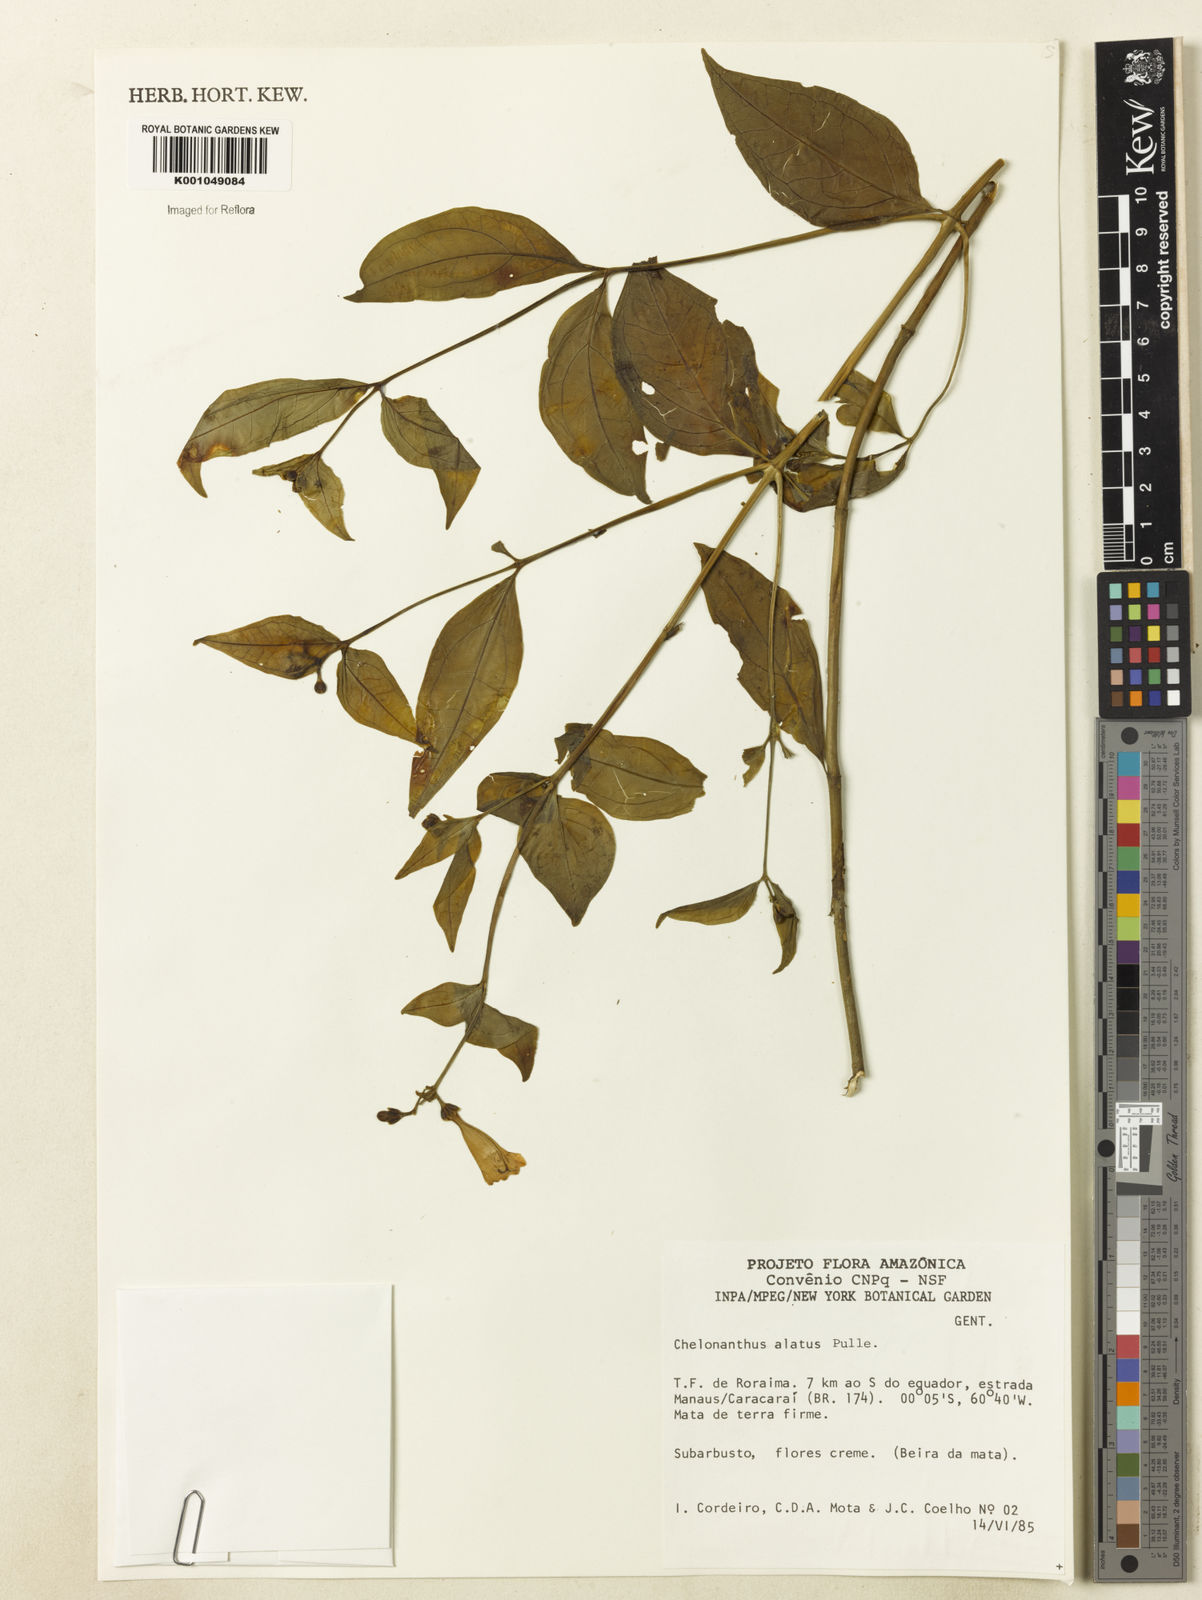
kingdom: Plantae
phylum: Tracheophyta
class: Magnoliopsida
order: Gentianales
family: Gentianaceae
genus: Chelonanthus
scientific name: Chelonanthus alatus
